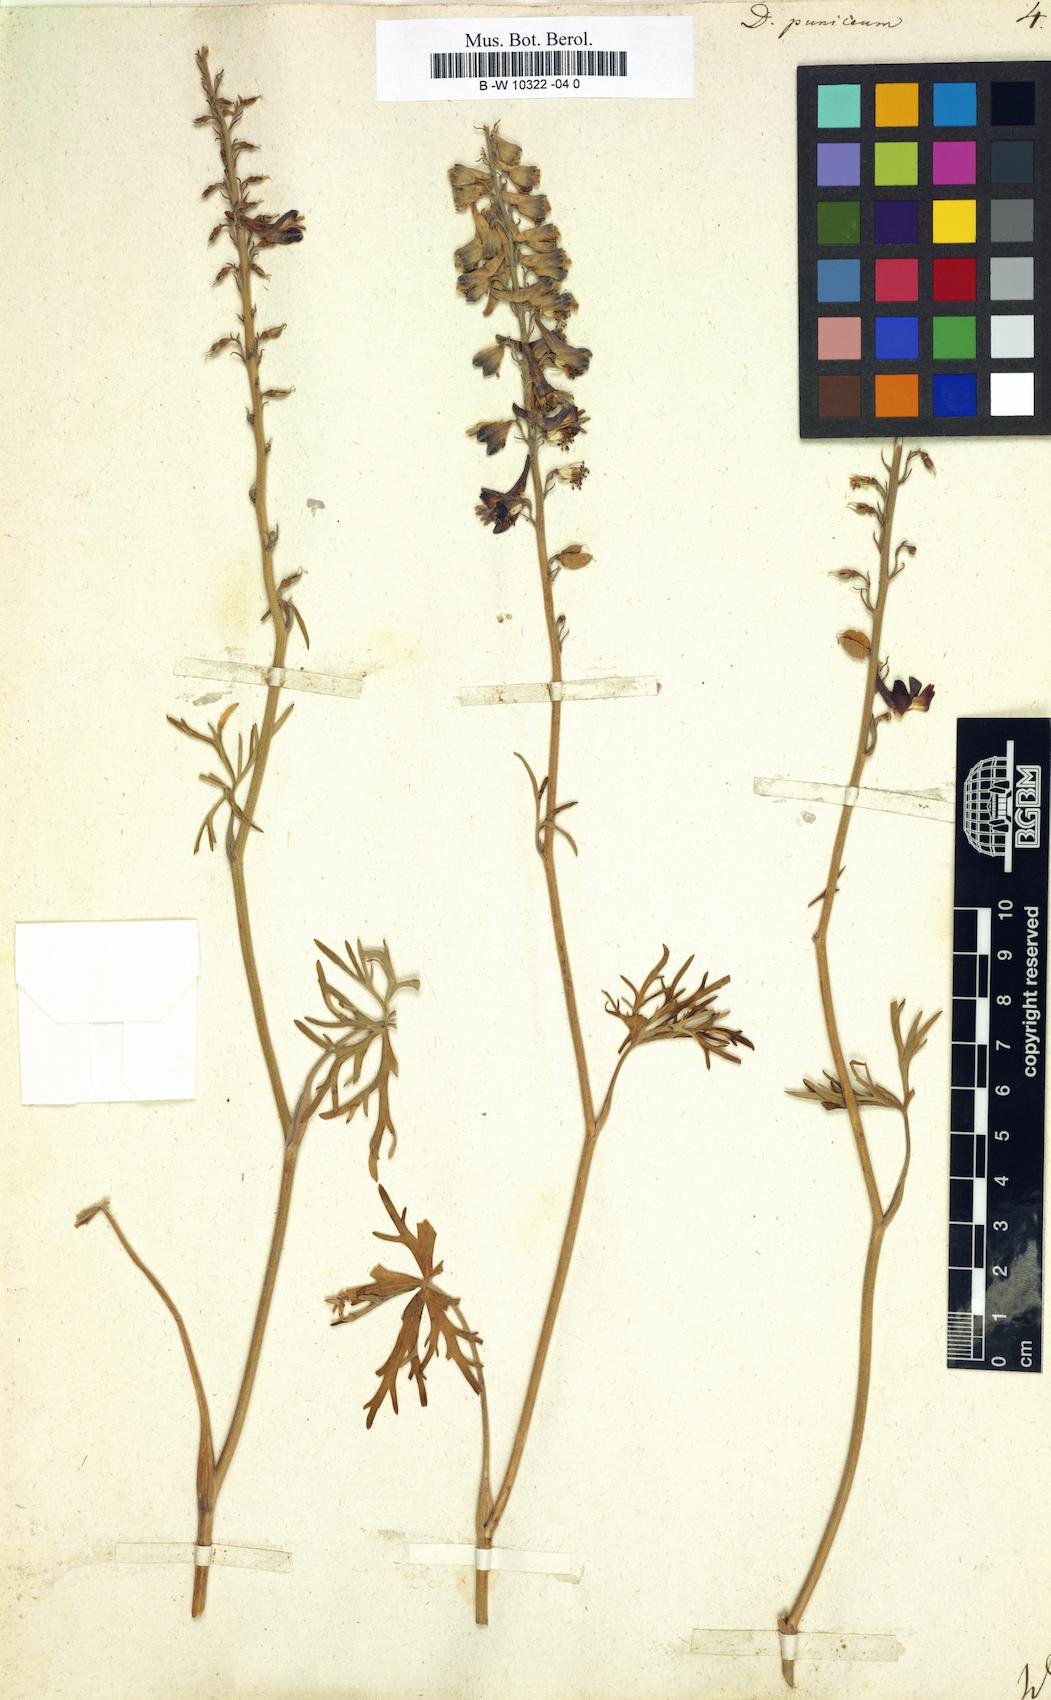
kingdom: Plantae
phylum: Tracheophyta
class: Magnoliopsida
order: Ranunculales
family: Ranunculaceae
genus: Delphinium
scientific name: Delphinium puniceum
